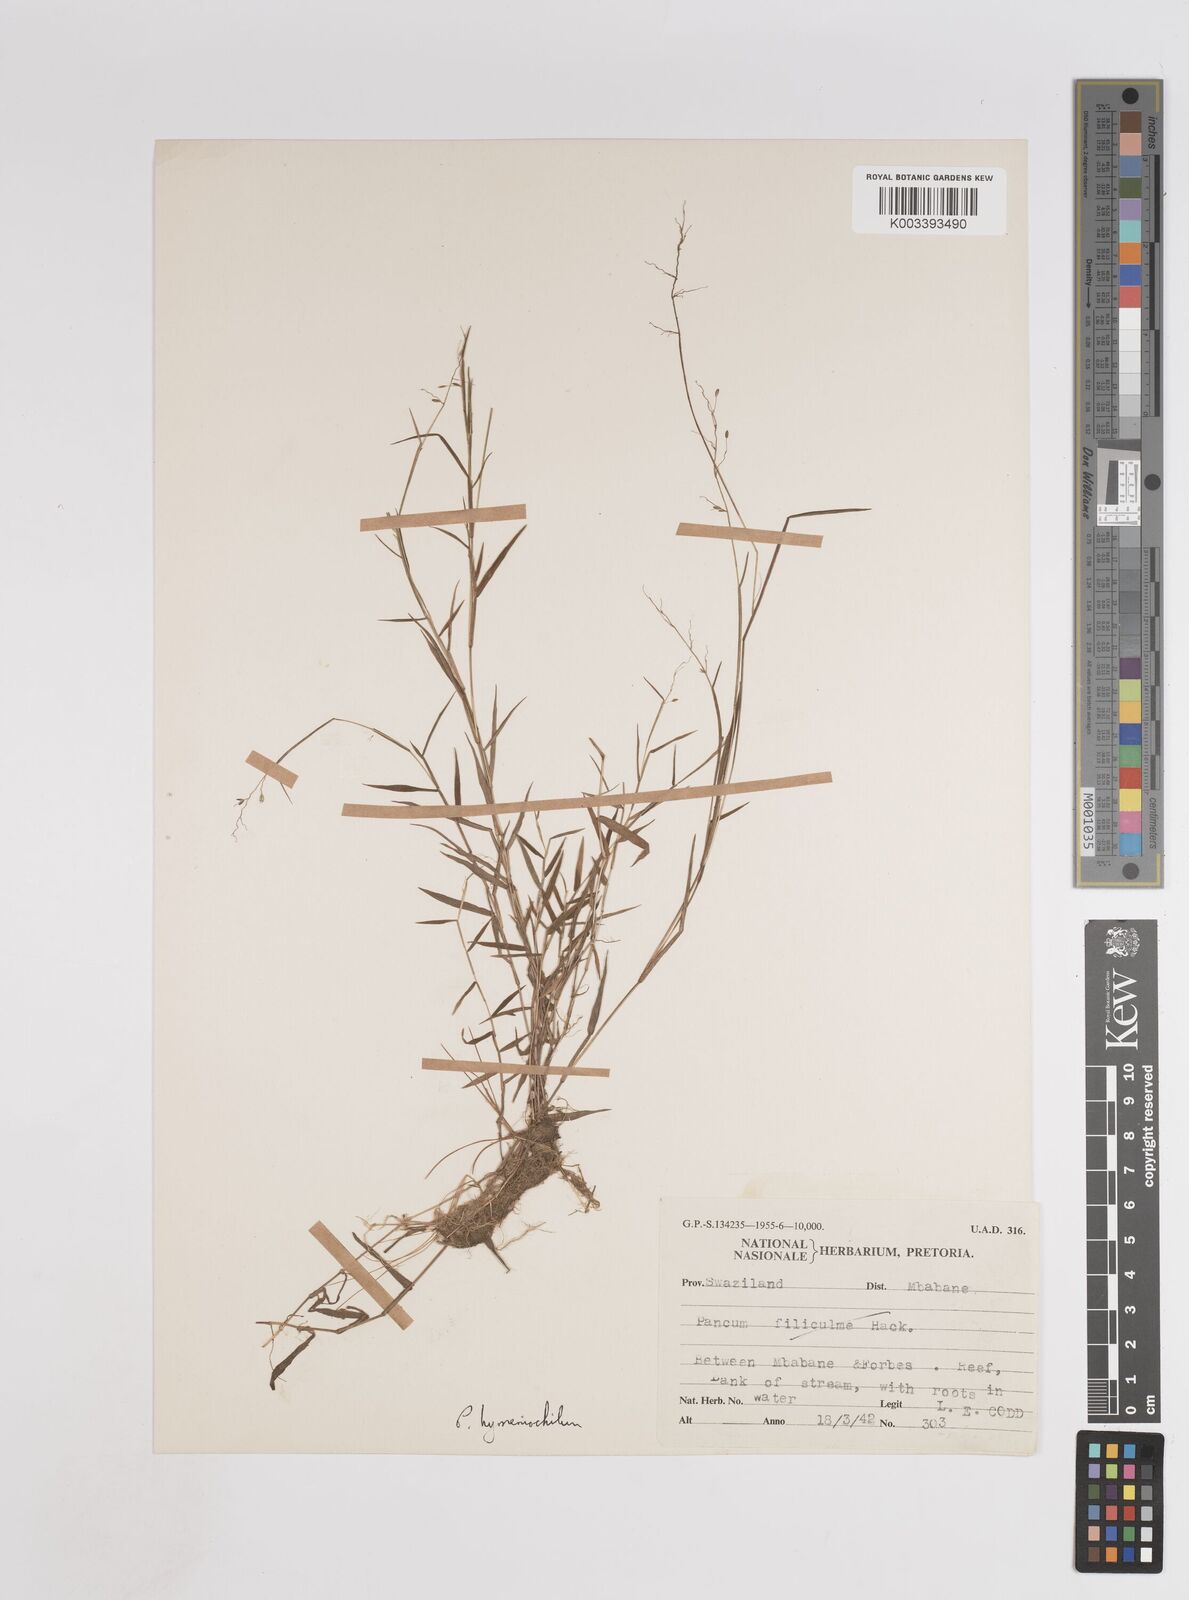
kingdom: Plantae
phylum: Tracheophyta
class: Liliopsida
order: Poales
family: Poaceae
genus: Adenochloa
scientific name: Adenochloa hymeniochila
